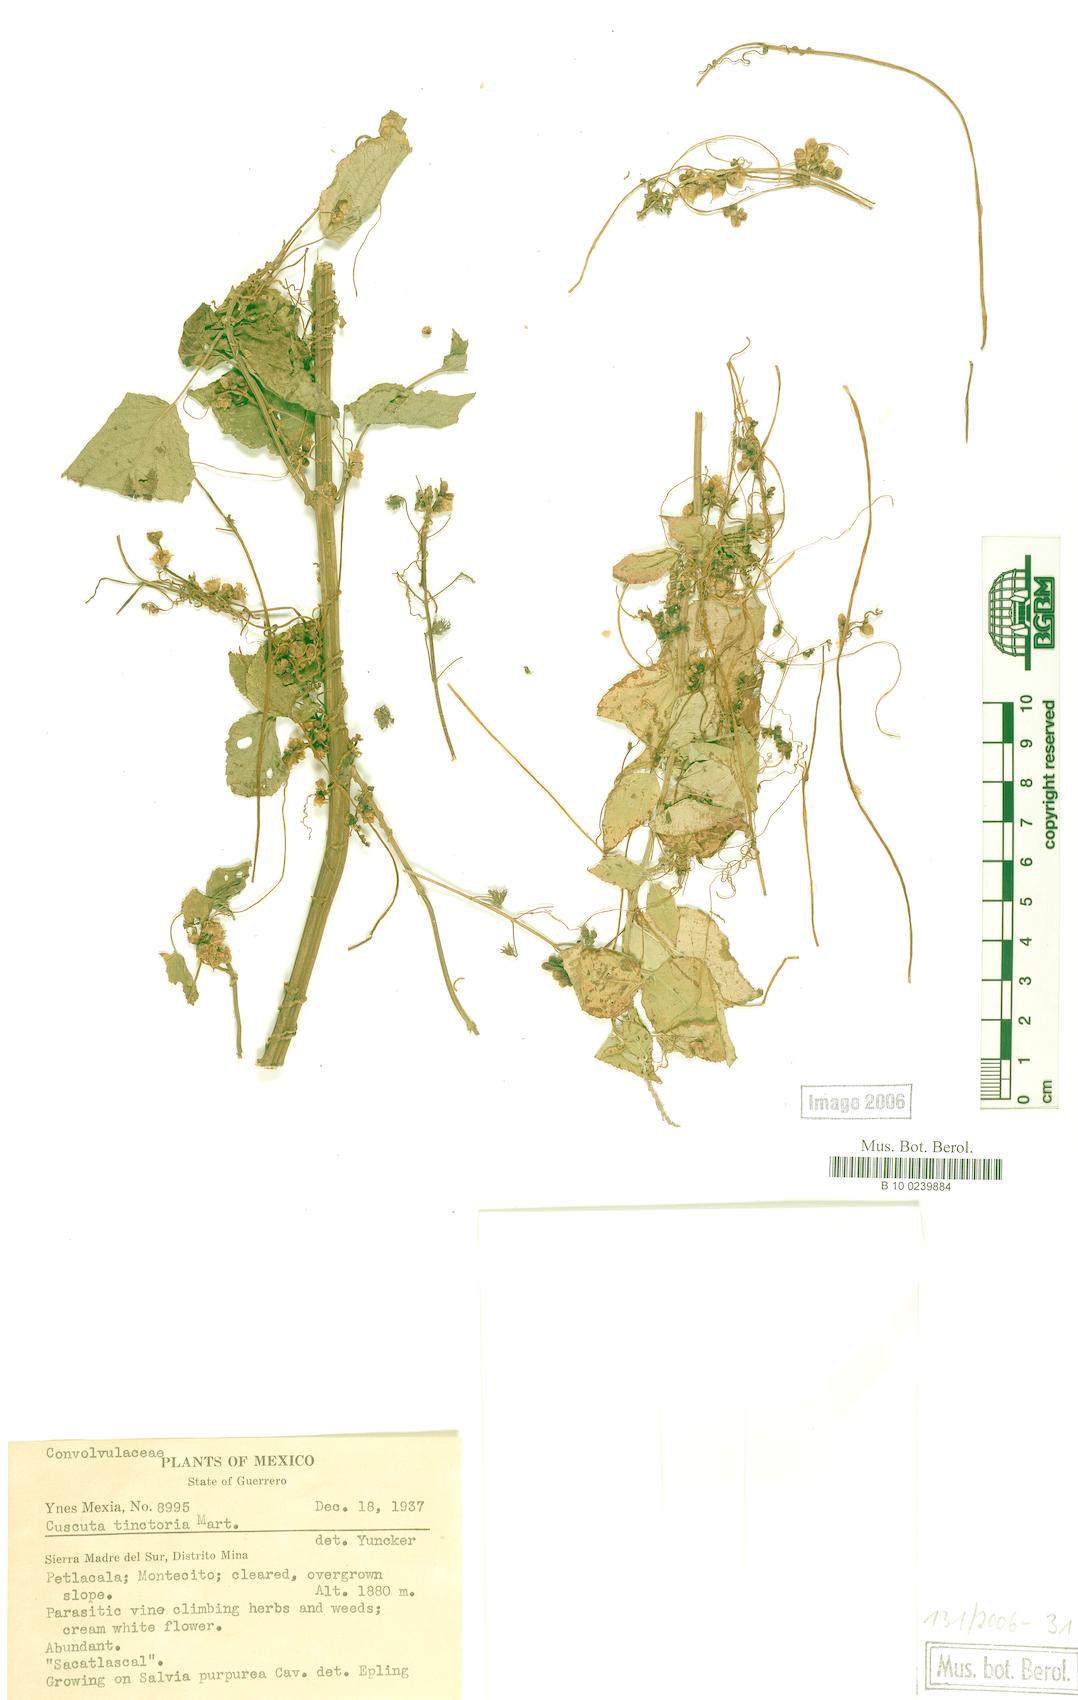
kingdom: Plantae
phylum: Tracheophyta
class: Magnoliopsida
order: Solanales
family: Convolvulaceae
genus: Cuscuta
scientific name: Cuscuta tinctoria
